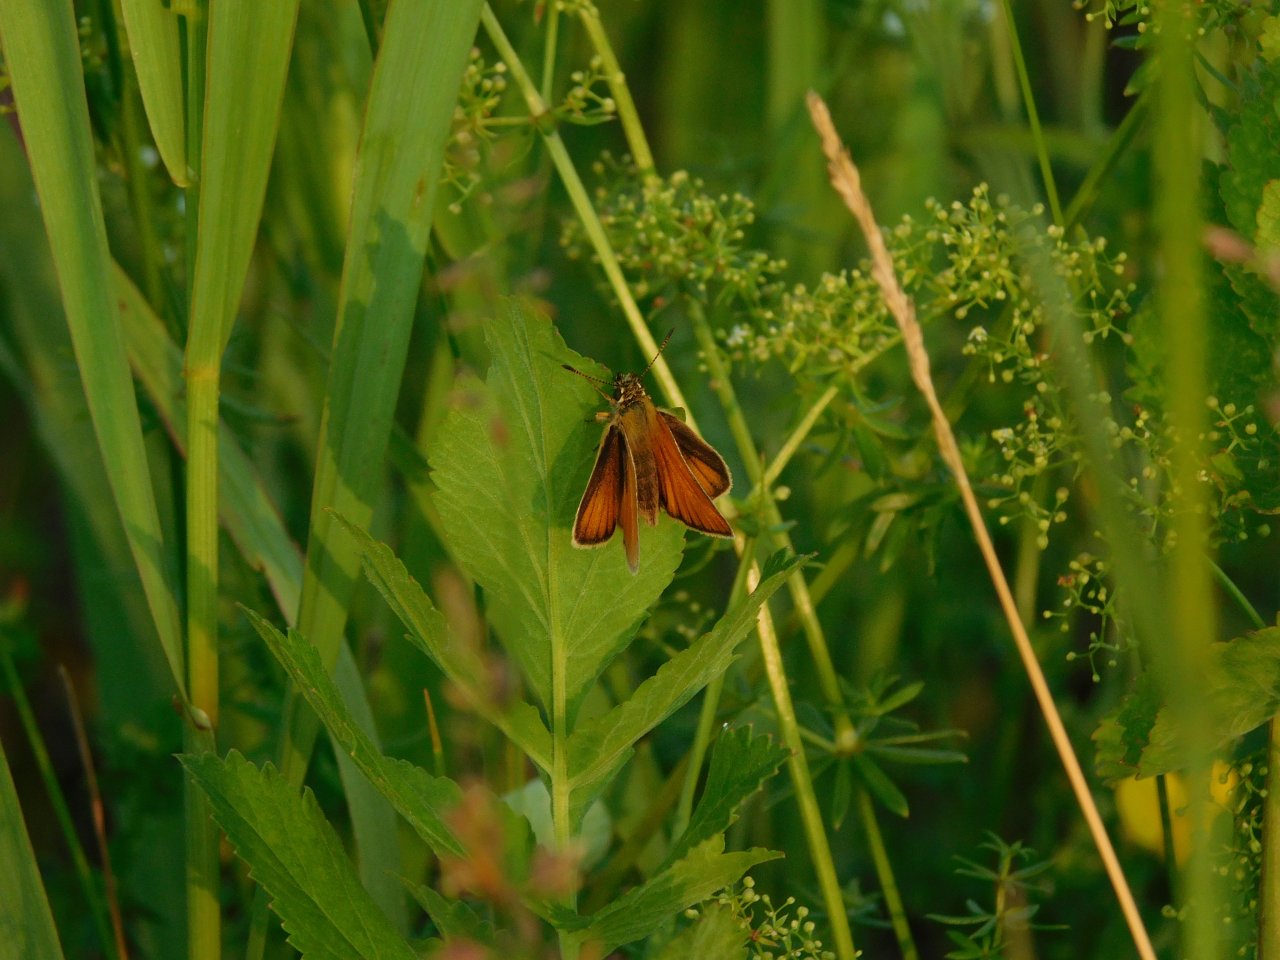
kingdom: Animalia
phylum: Arthropoda
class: Insecta
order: Lepidoptera
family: Hesperiidae
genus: Thymelicus
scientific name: Thymelicus lineola
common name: European Skipper
